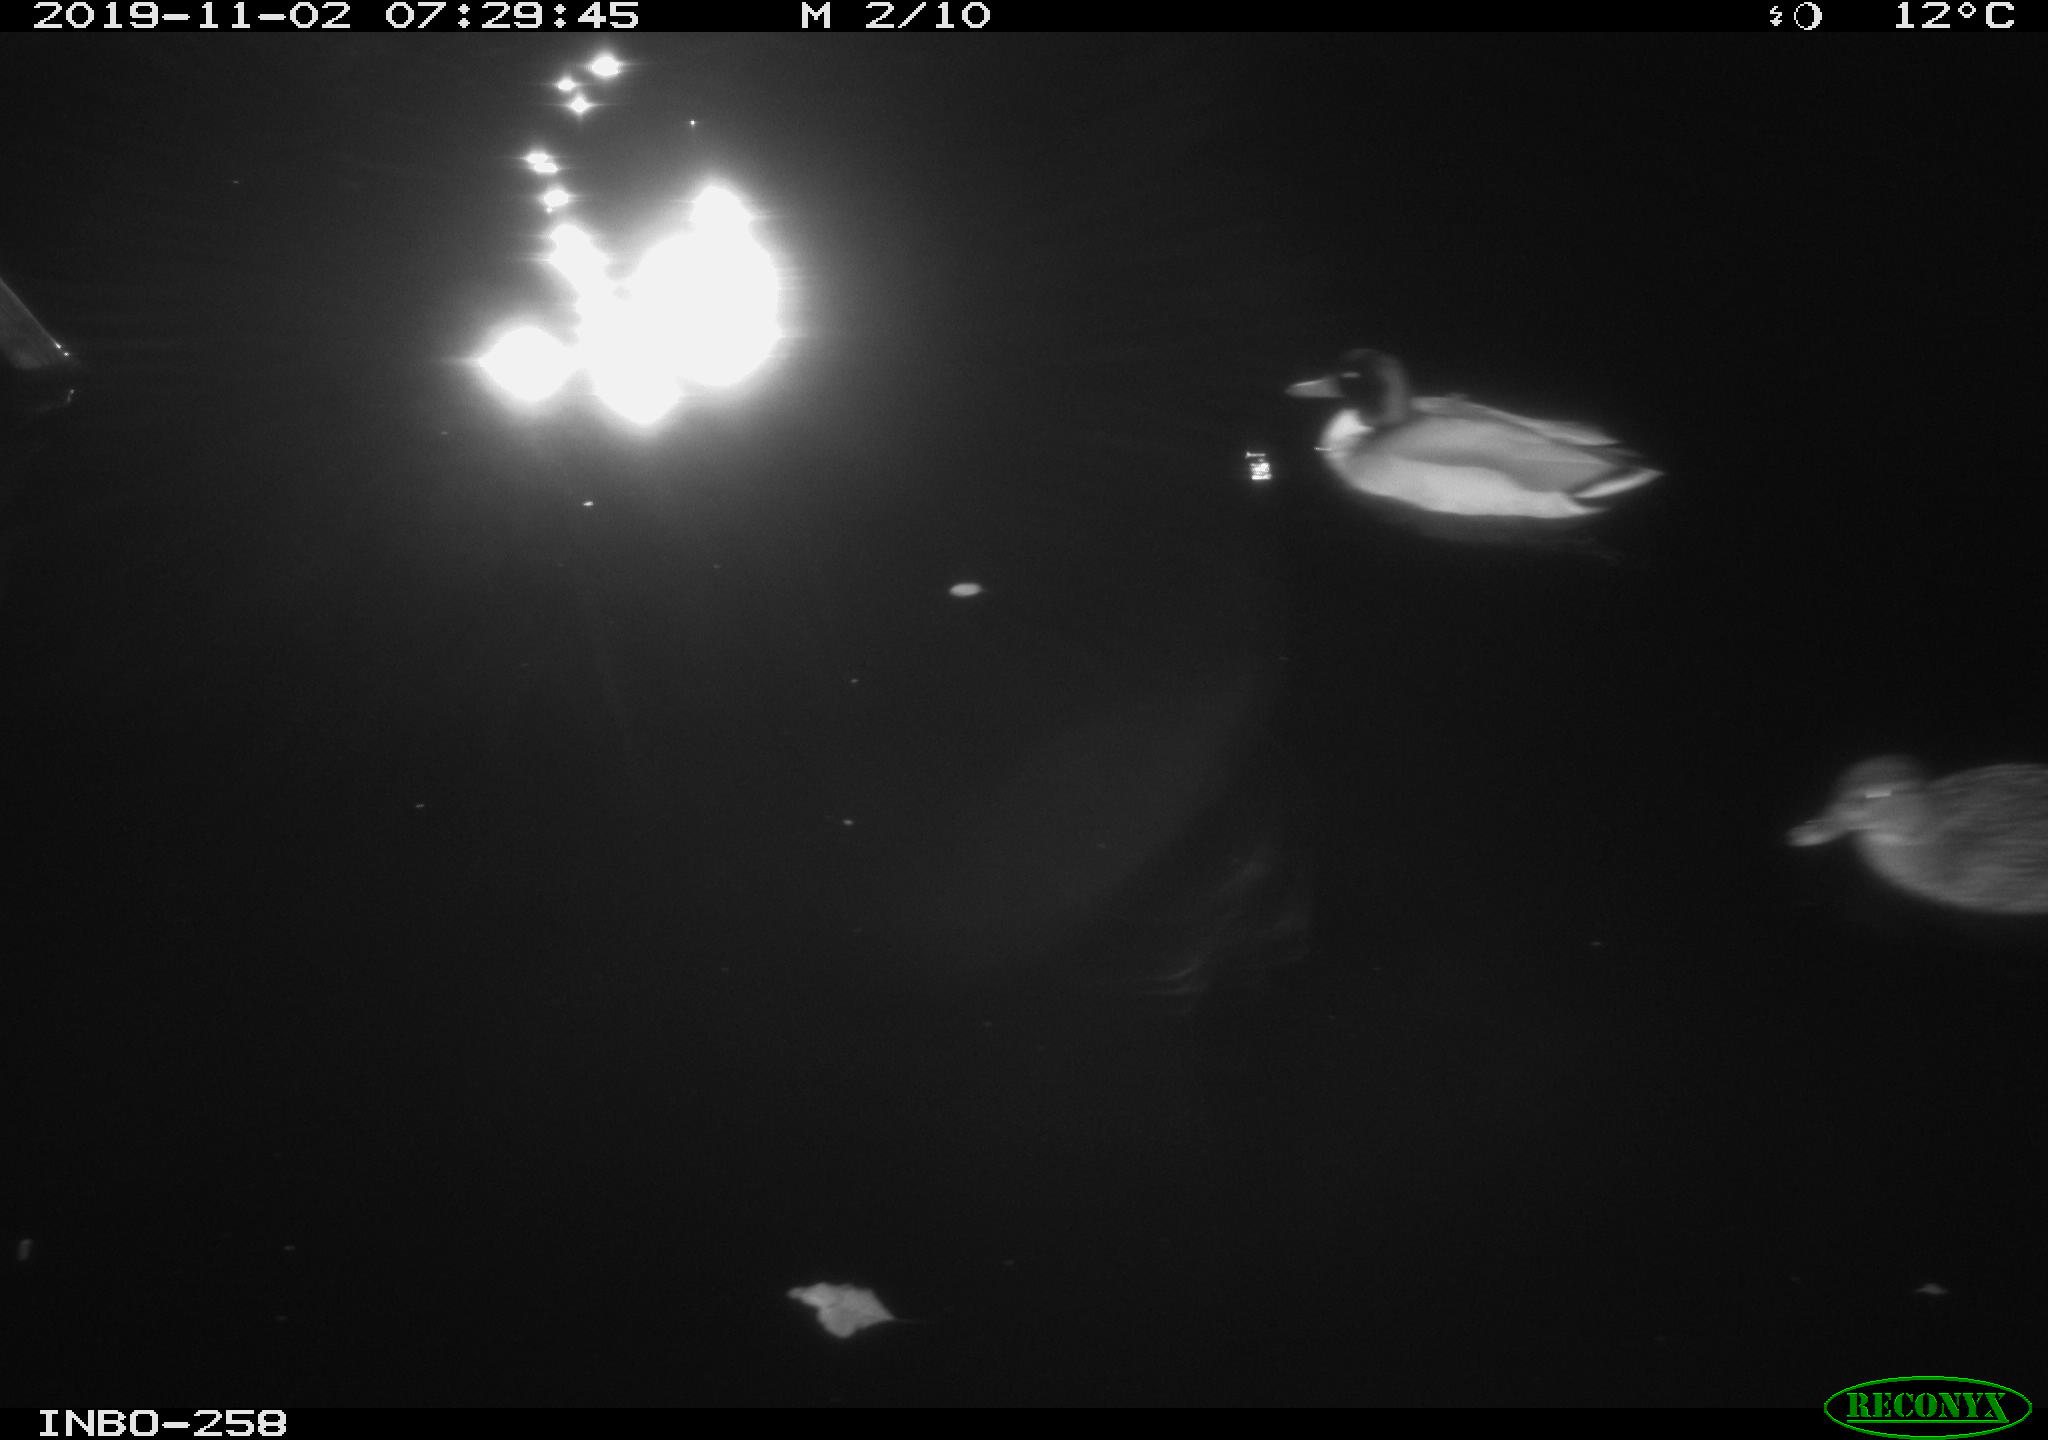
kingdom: Animalia
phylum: Chordata
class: Aves
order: Anseriformes
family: Anatidae
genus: Anas
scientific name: Anas platyrhynchos
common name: Mallard
